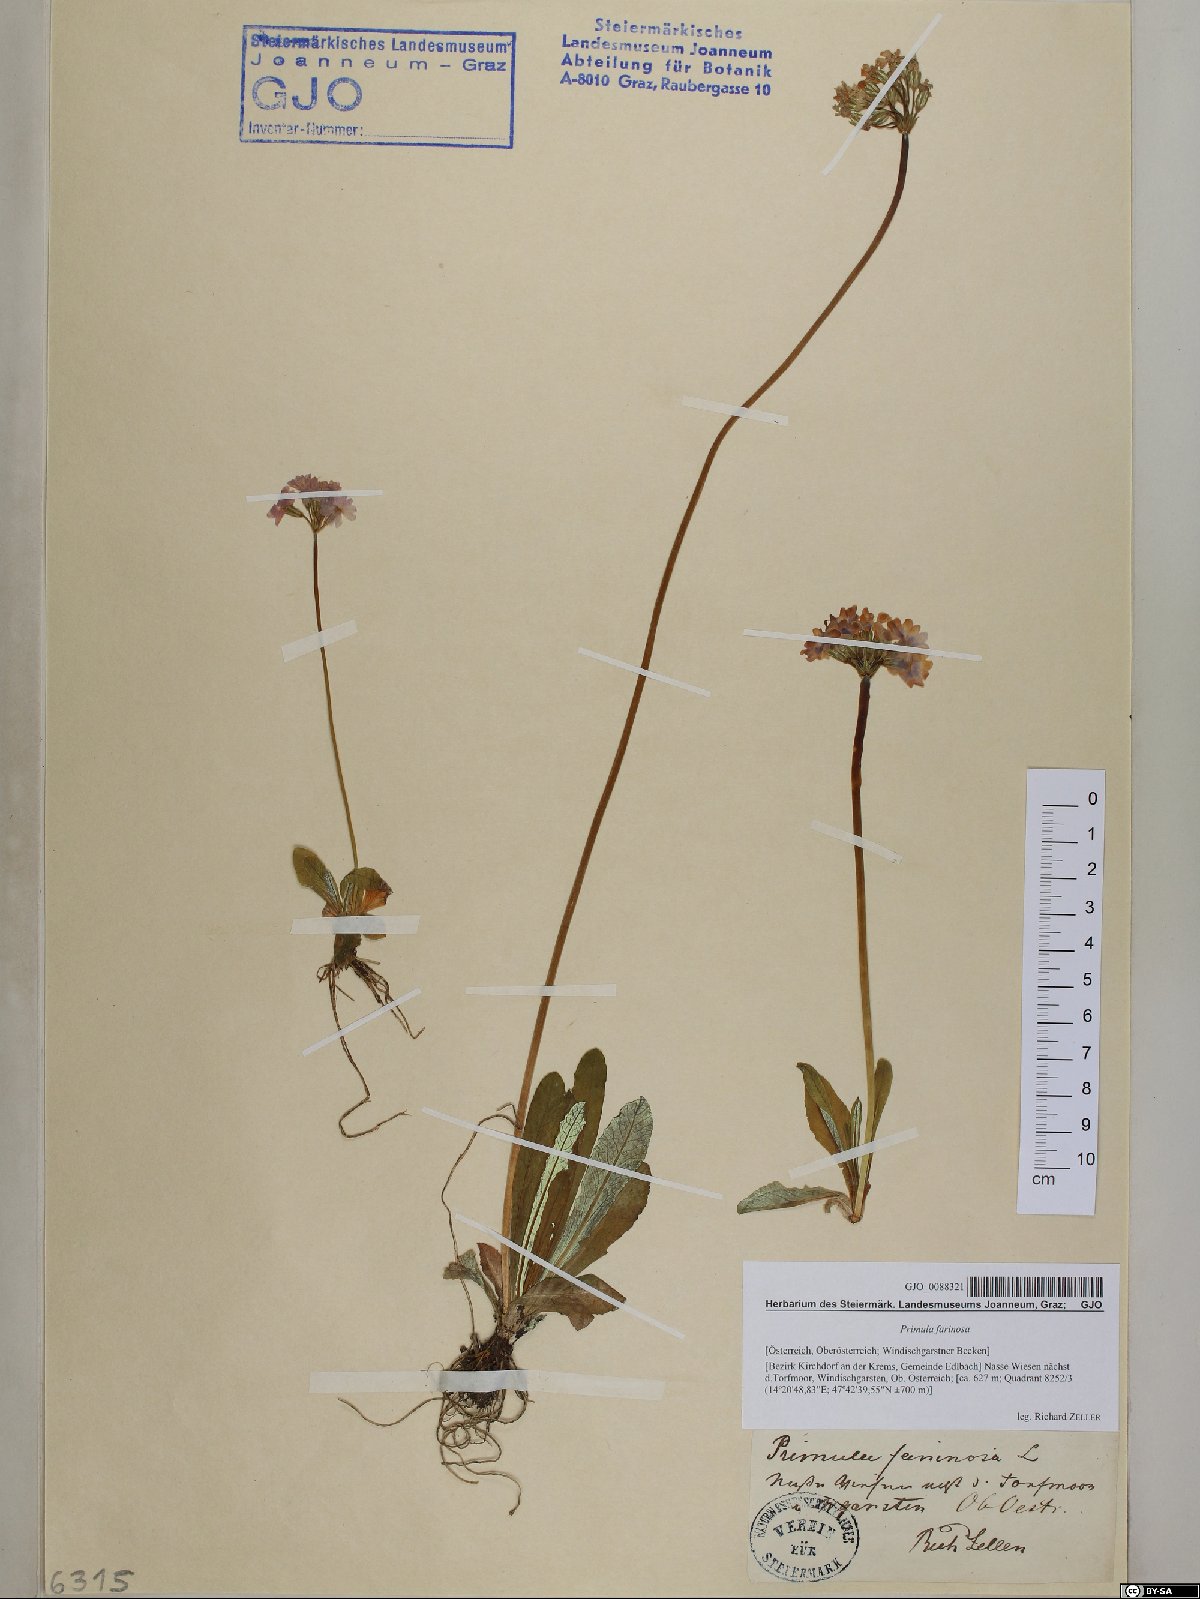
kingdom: Plantae
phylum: Tracheophyta
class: Magnoliopsida
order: Ericales
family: Primulaceae
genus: Primula
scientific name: Primula farinosa
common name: Bird's-eye primrose
